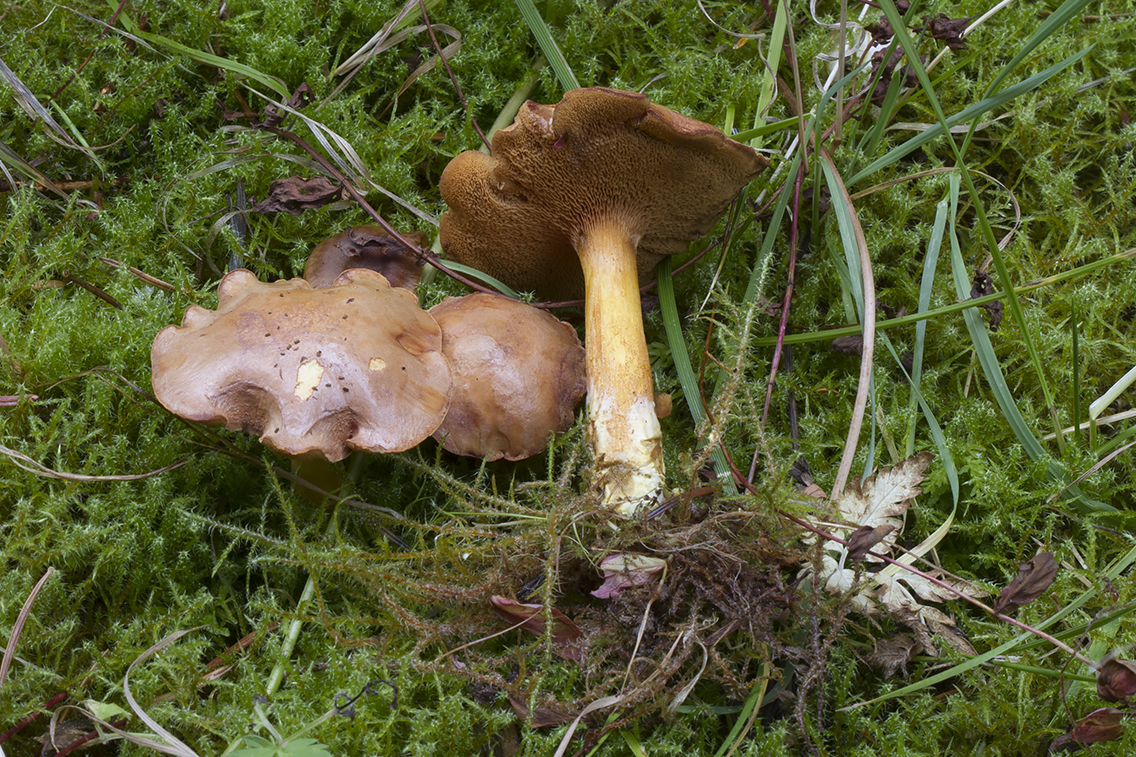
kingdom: Fungi
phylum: Basidiomycota
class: Agaricomycetes
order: Boletales
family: Boletaceae
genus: Chalciporus
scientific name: Chalciporus piperatus
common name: peberrørhat
